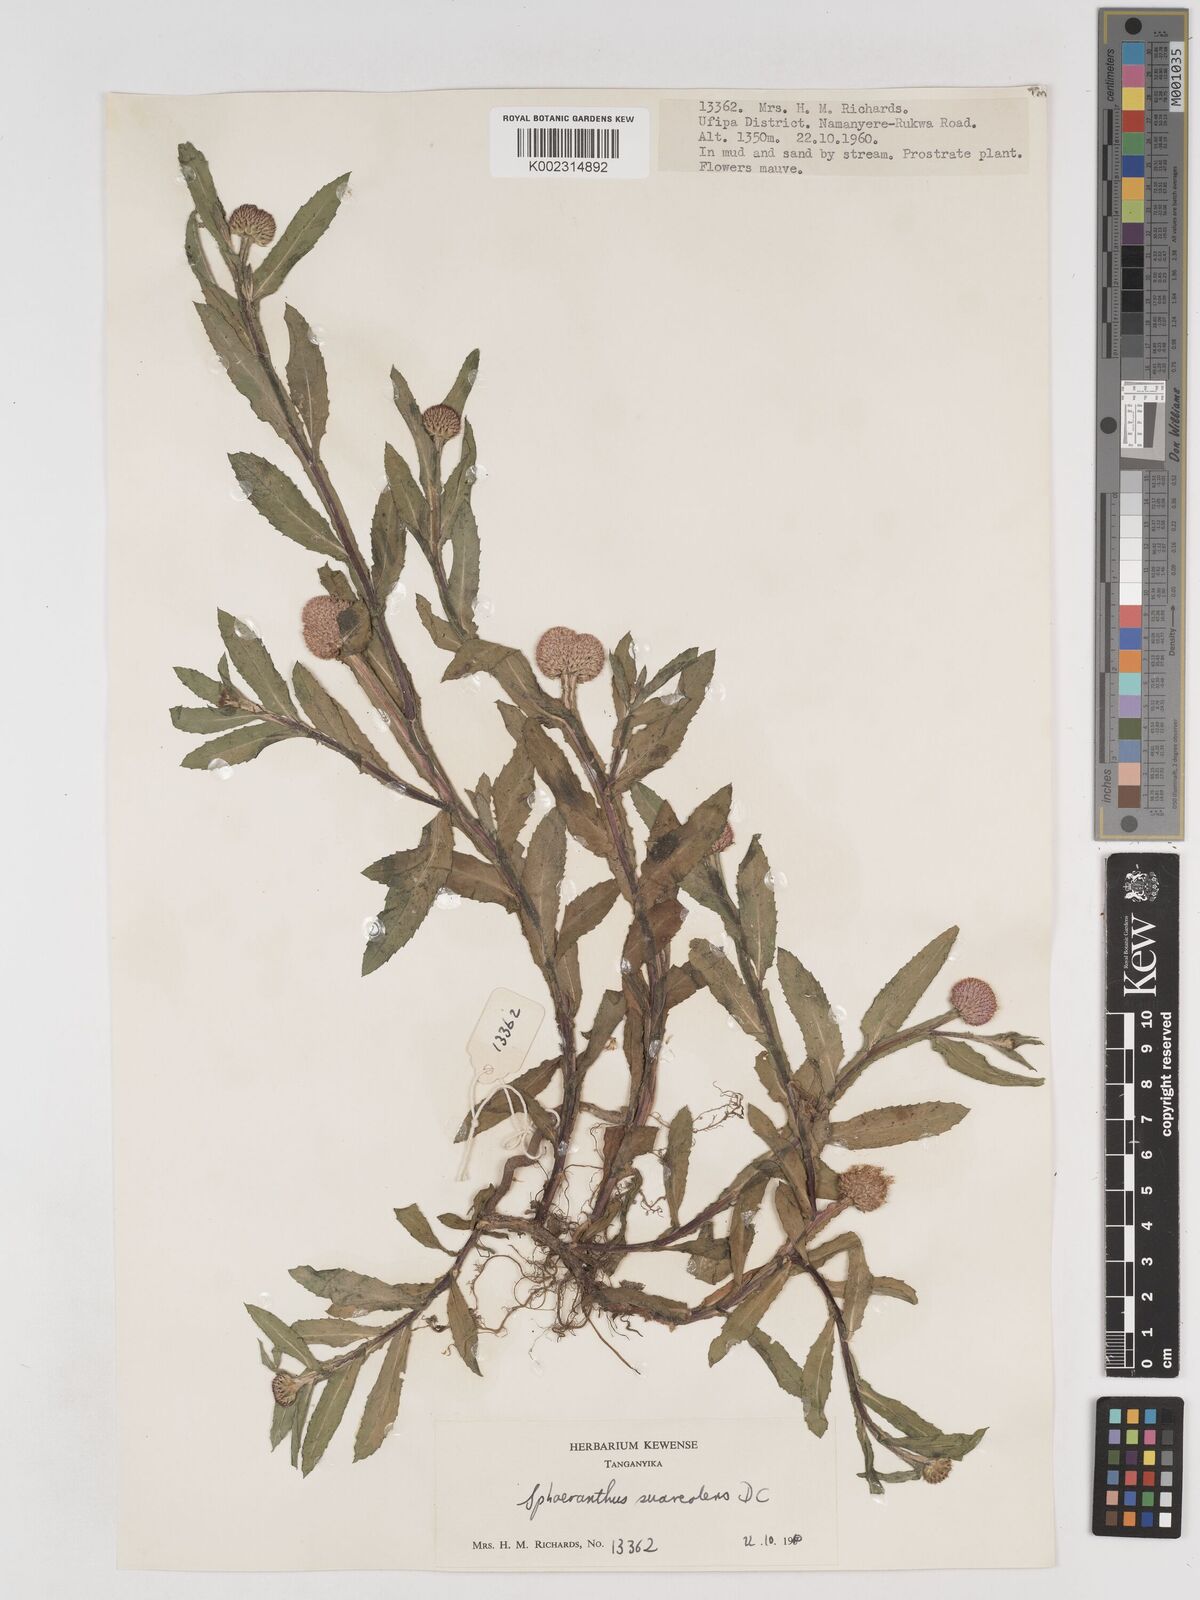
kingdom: Plantae
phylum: Tracheophyta
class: Magnoliopsida
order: Asterales
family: Asteraceae
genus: Sphaeranthus
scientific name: Sphaeranthus suaveolens
